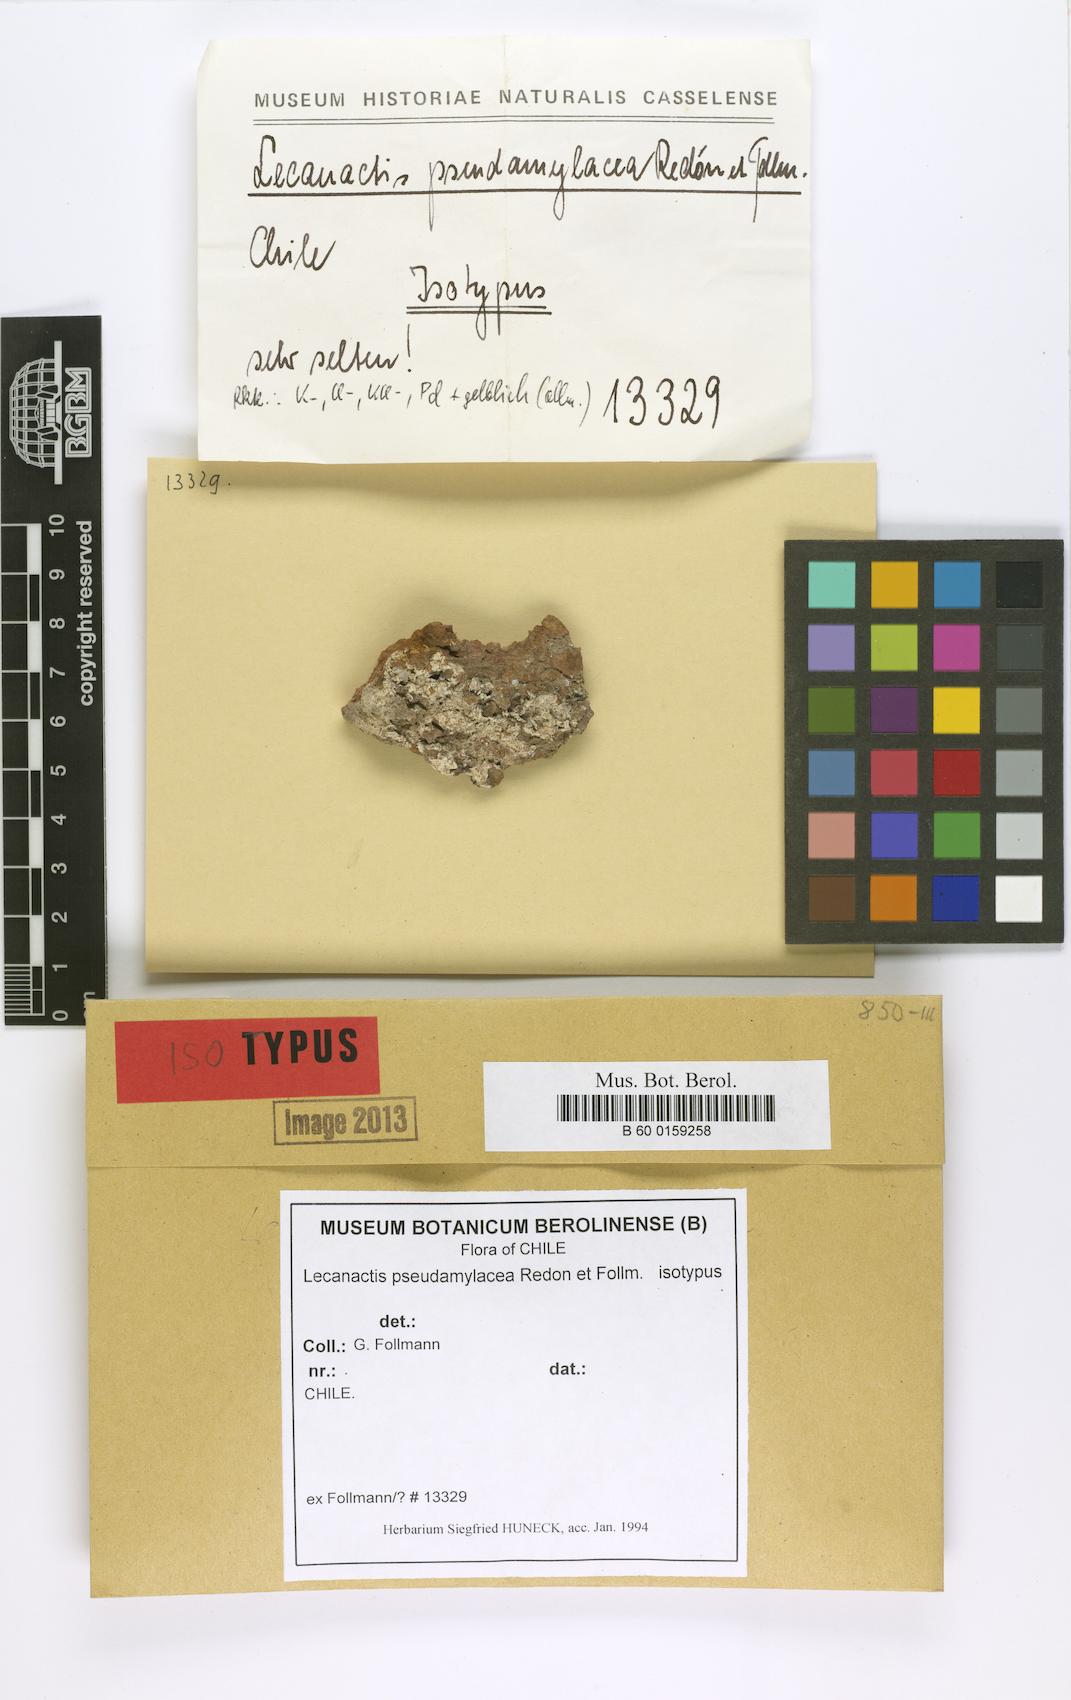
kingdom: Fungi
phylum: Ascomycota
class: Arthoniomycetes
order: Arthoniales
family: Roccellaceae
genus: Lecanactis
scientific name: Lecanactis
